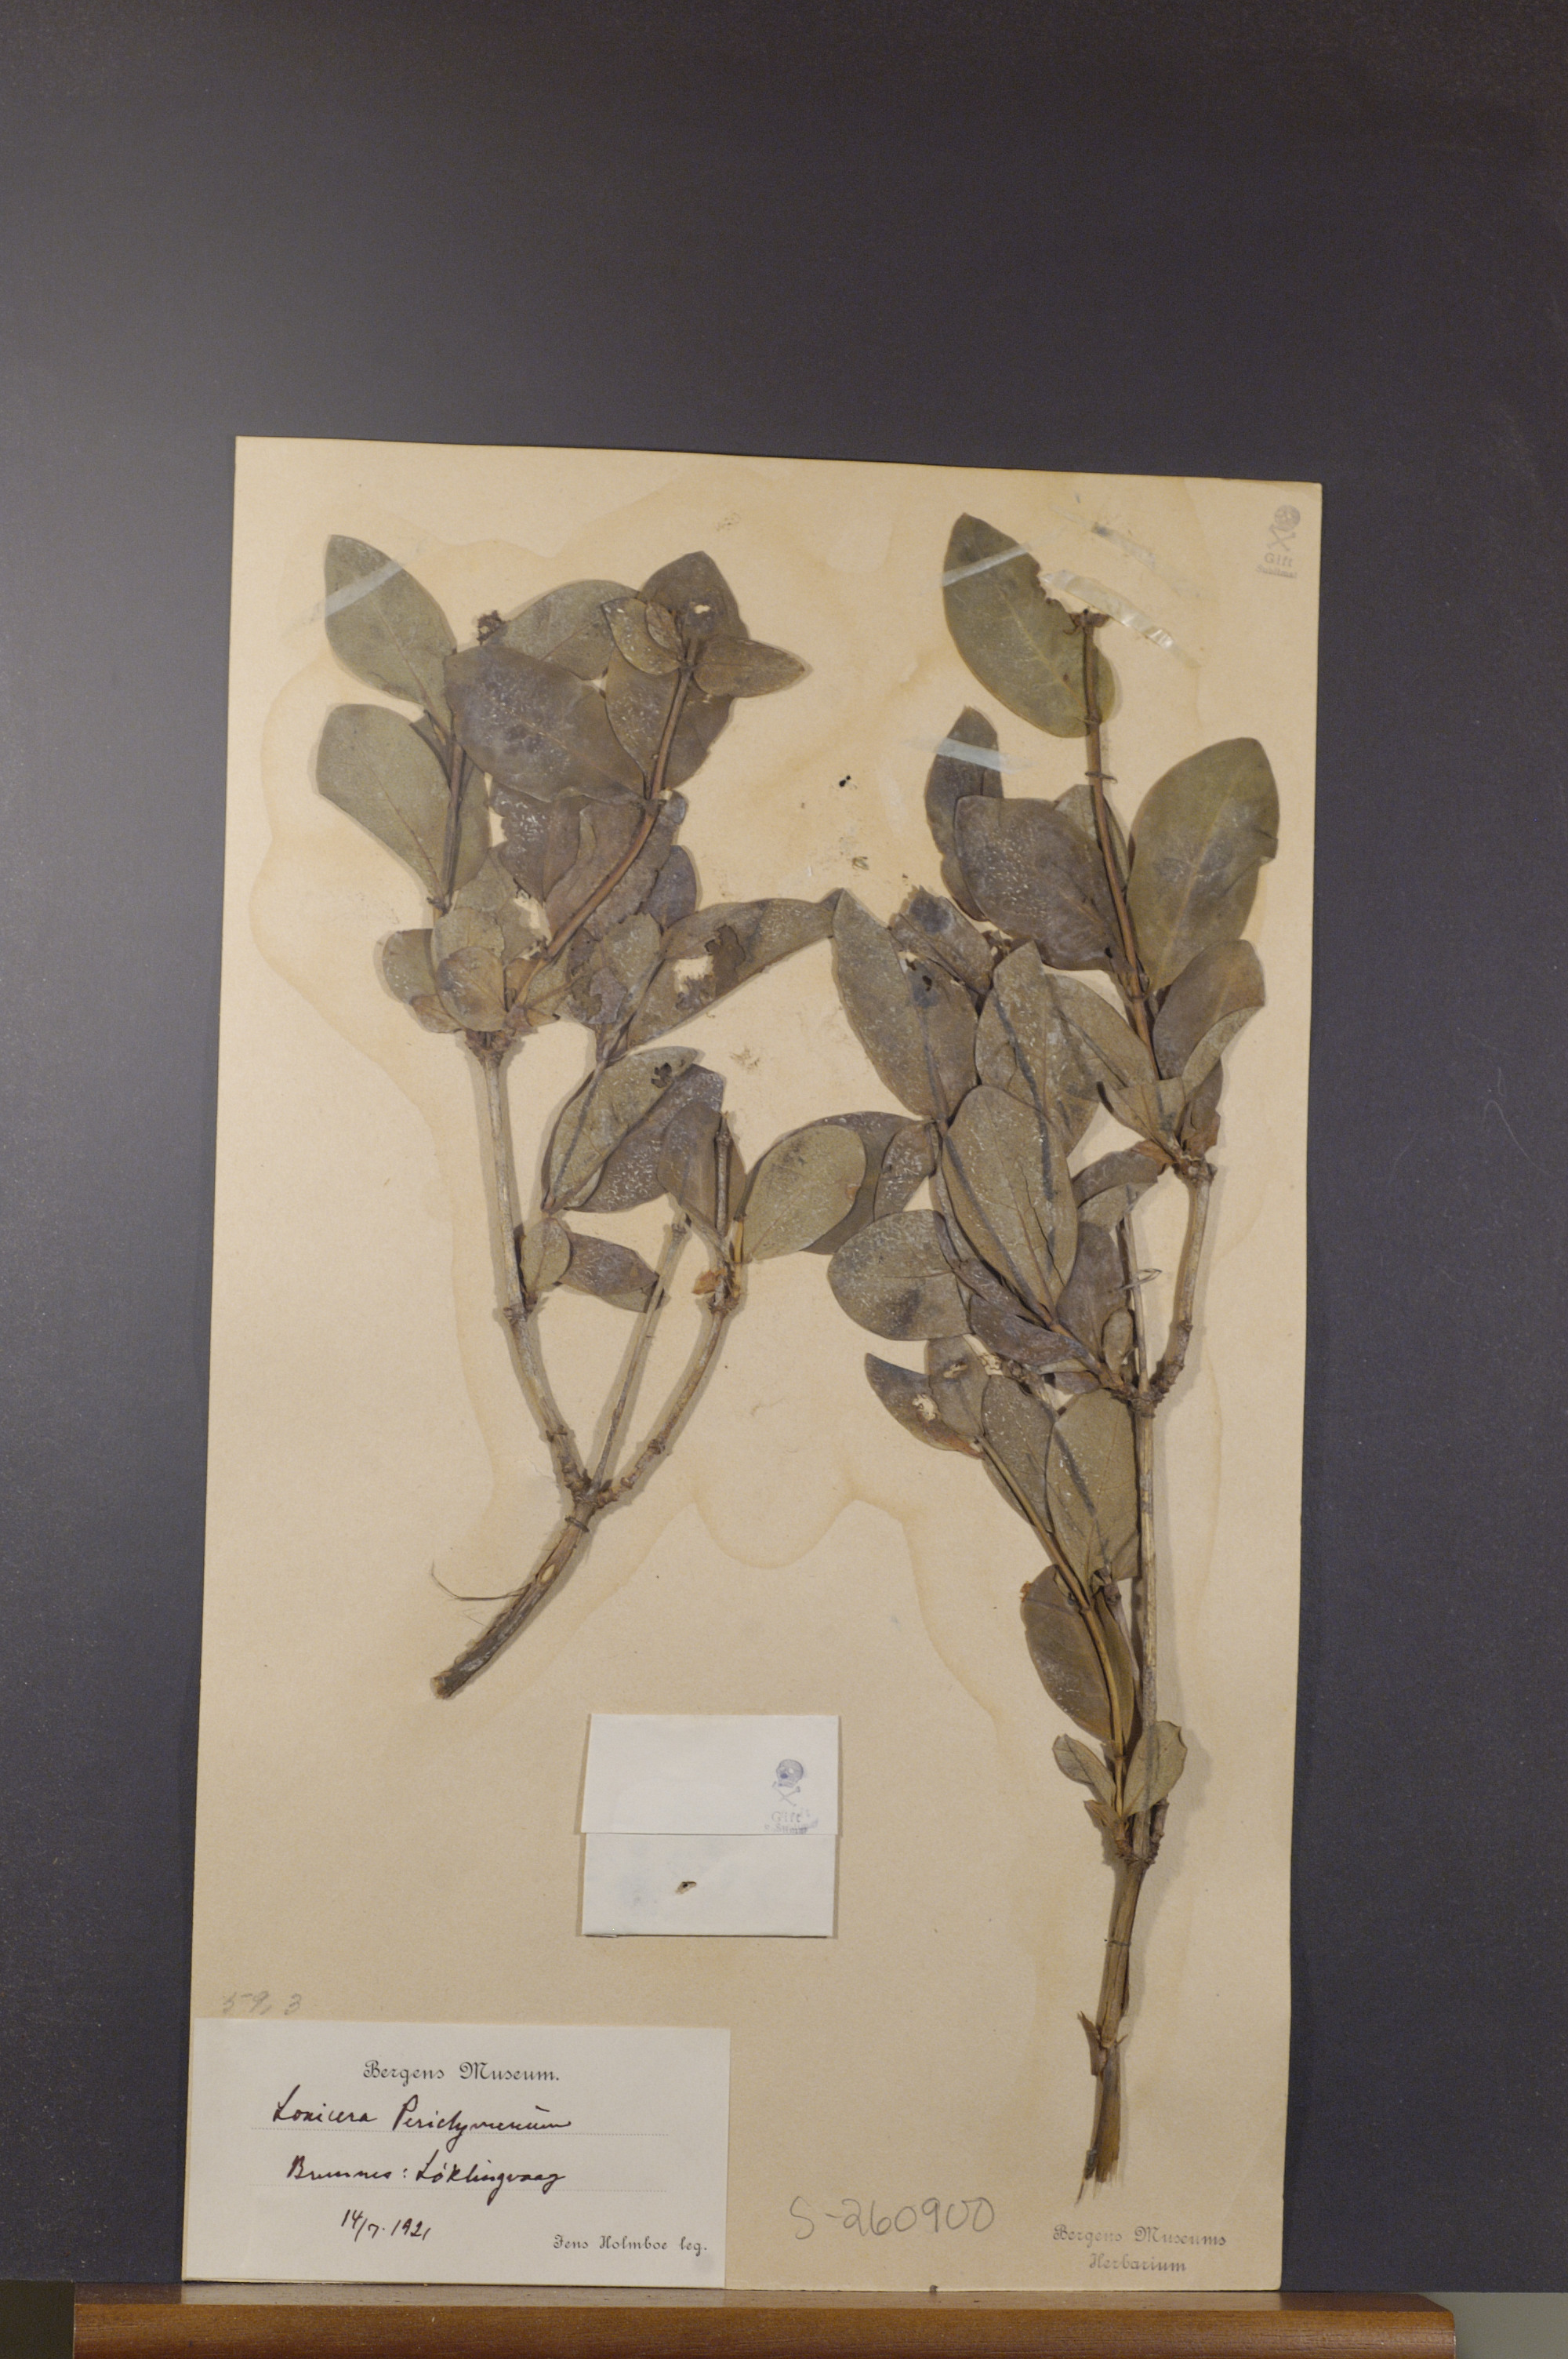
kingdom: Plantae
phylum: Tracheophyta
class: Magnoliopsida
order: Dipsacales
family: Caprifoliaceae
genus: Lonicera
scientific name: Lonicera periclymenum
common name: European honeysuckle
